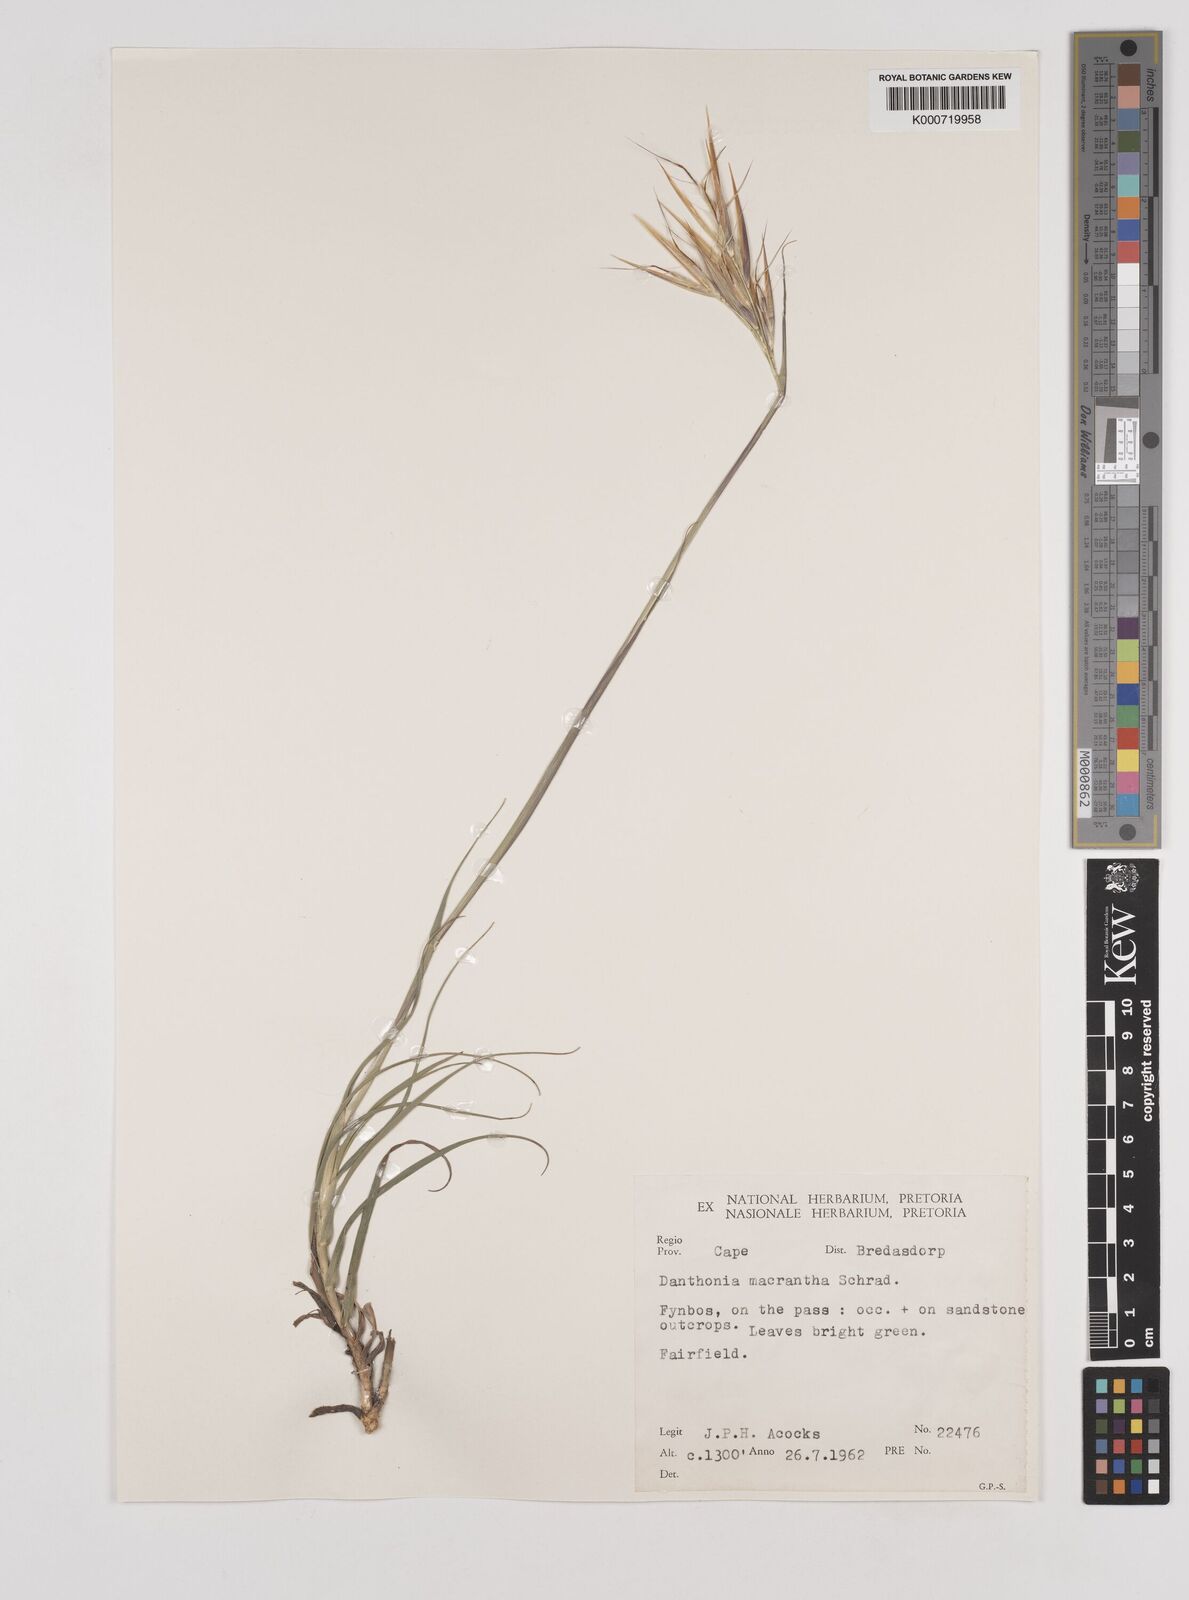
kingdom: Plantae
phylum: Tracheophyta
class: Liliopsida
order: Poales
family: Poaceae
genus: Pseudopentameris
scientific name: Pseudopentameris macrantha
